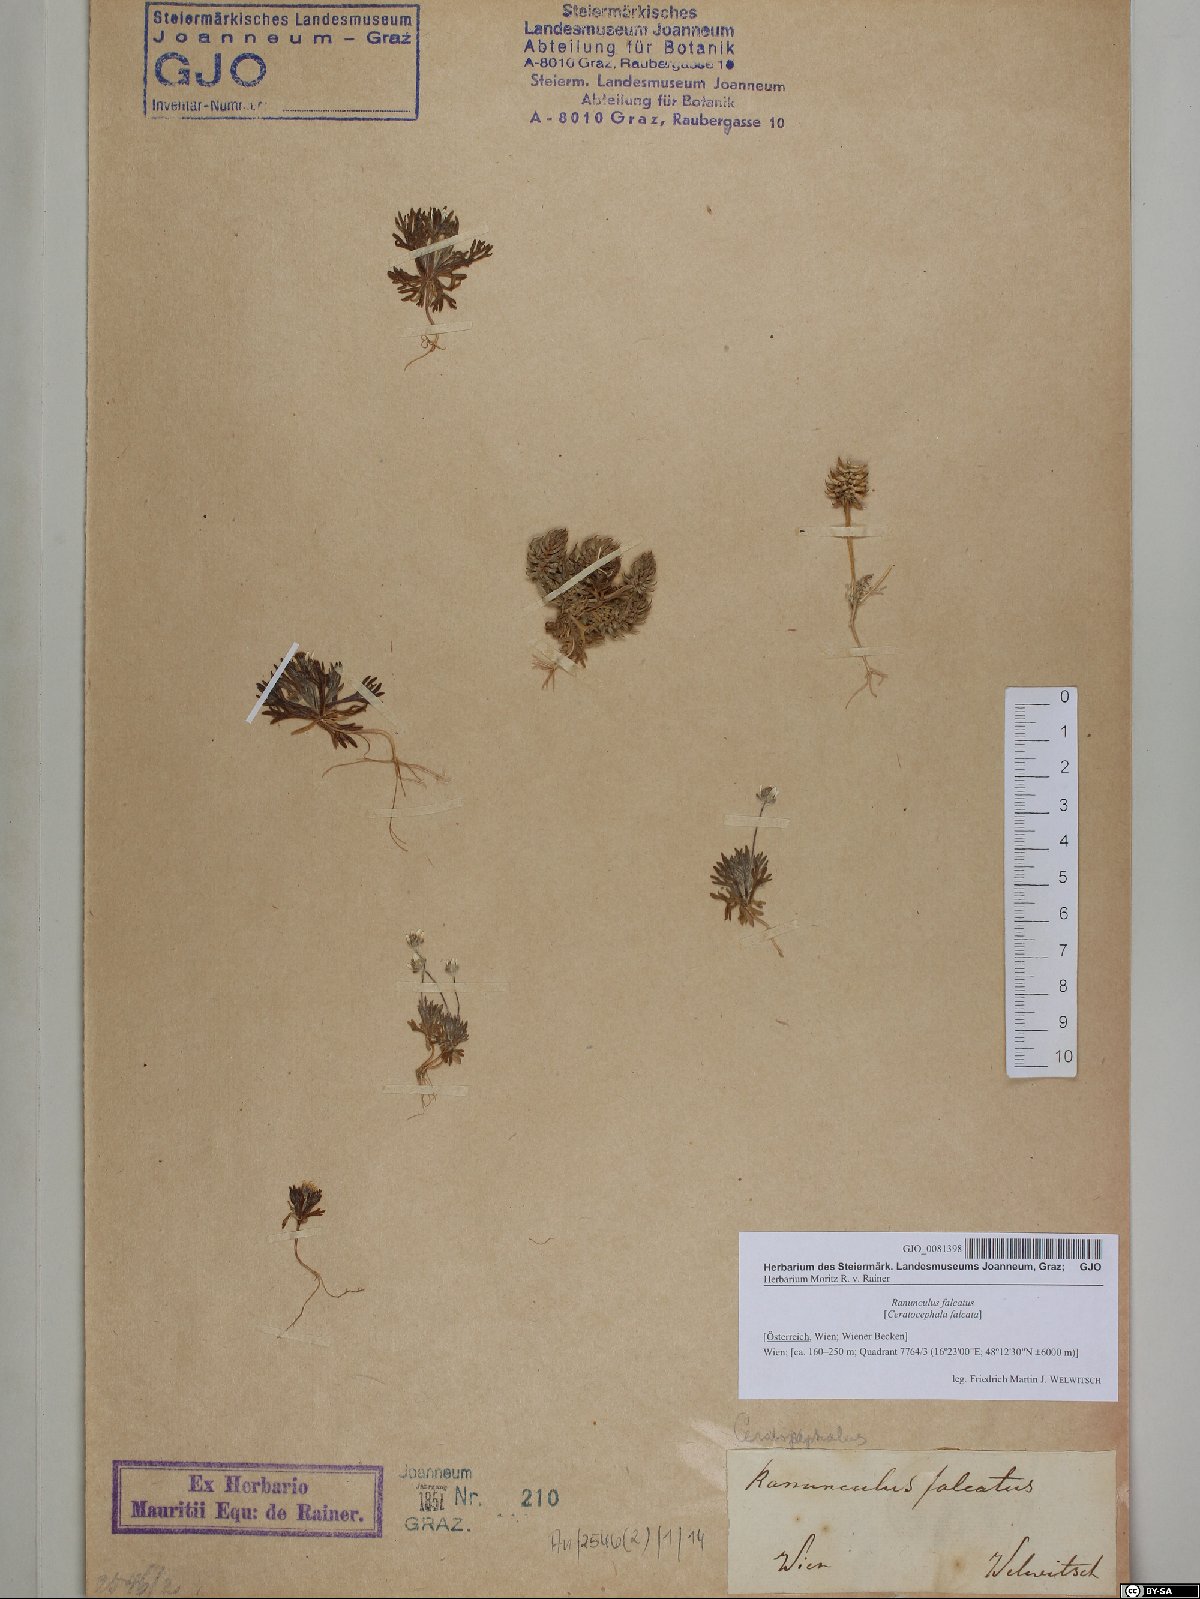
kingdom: Plantae
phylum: Tracheophyta
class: Magnoliopsida
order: Ranunculales
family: Ranunculaceae
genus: Ceratocephala
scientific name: Ceratocephala falcata
